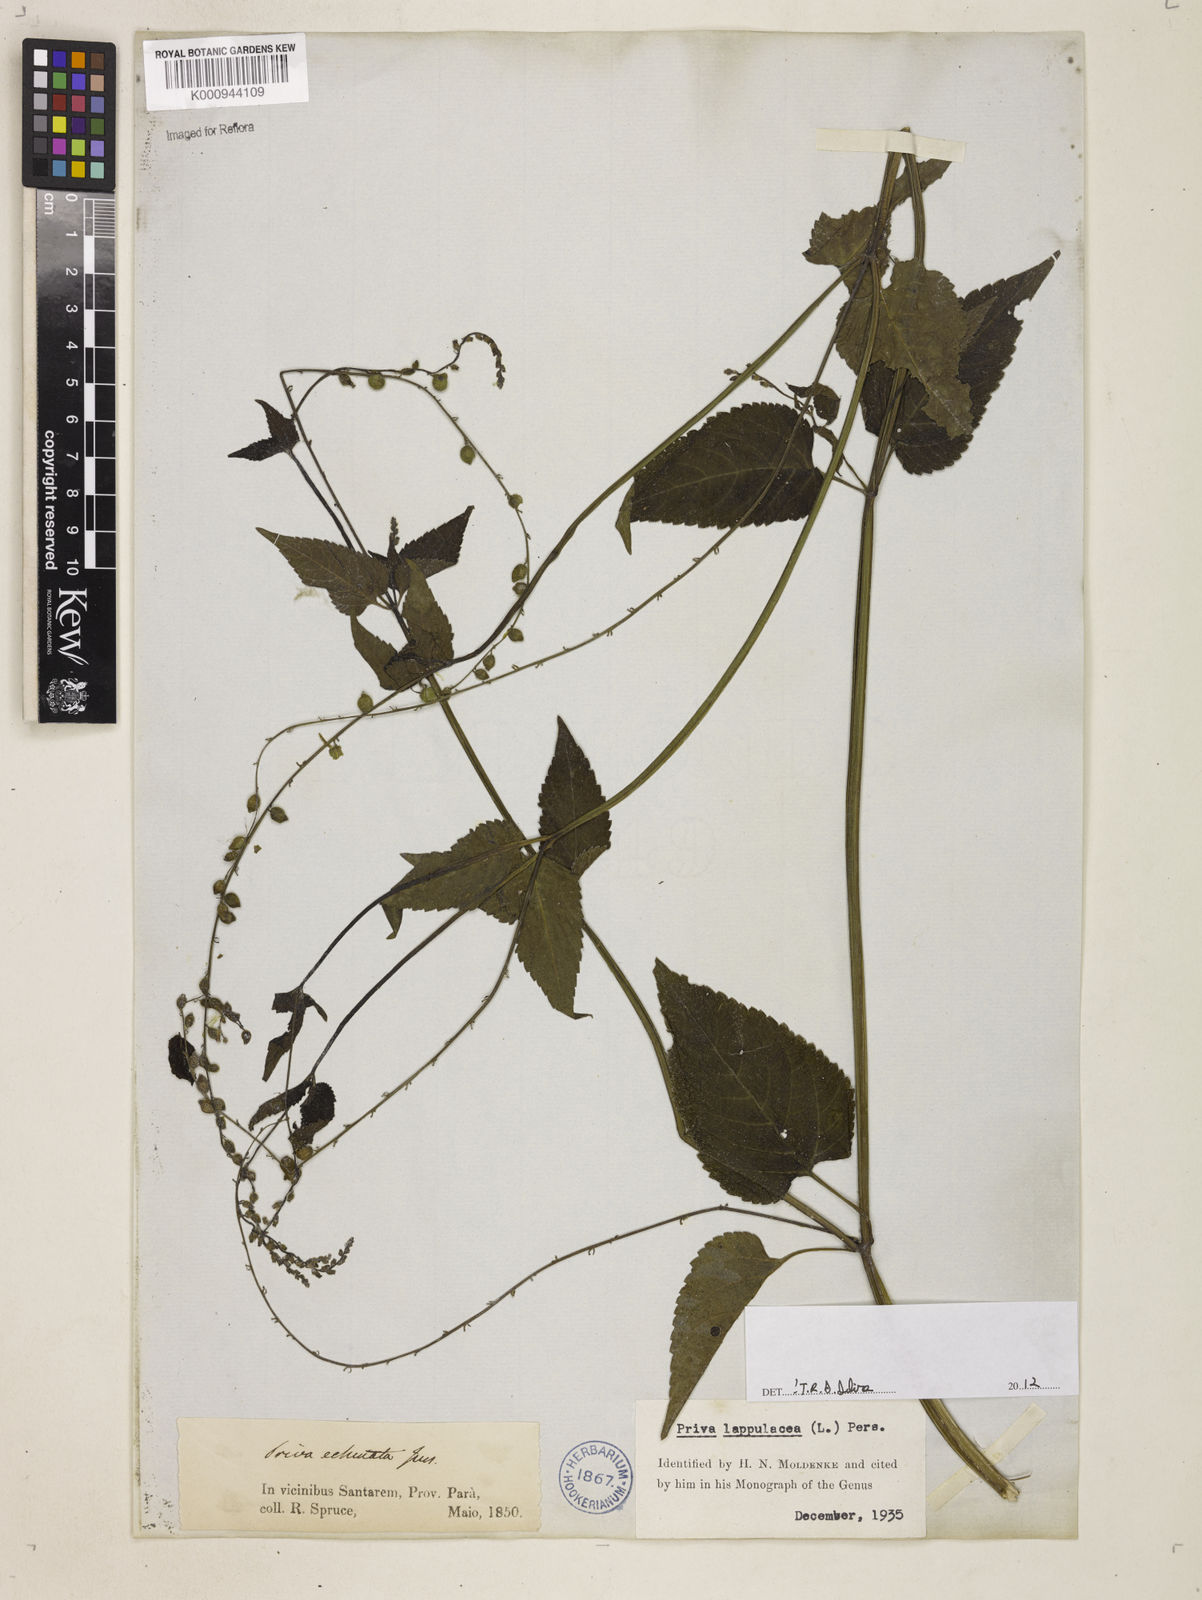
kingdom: Plantae
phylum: Tracheophyta
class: Magnoliopsida
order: Lamiales
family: Verbenaceae
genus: Priva
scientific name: Priva lappulacea
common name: Fasten-'pon-coat
